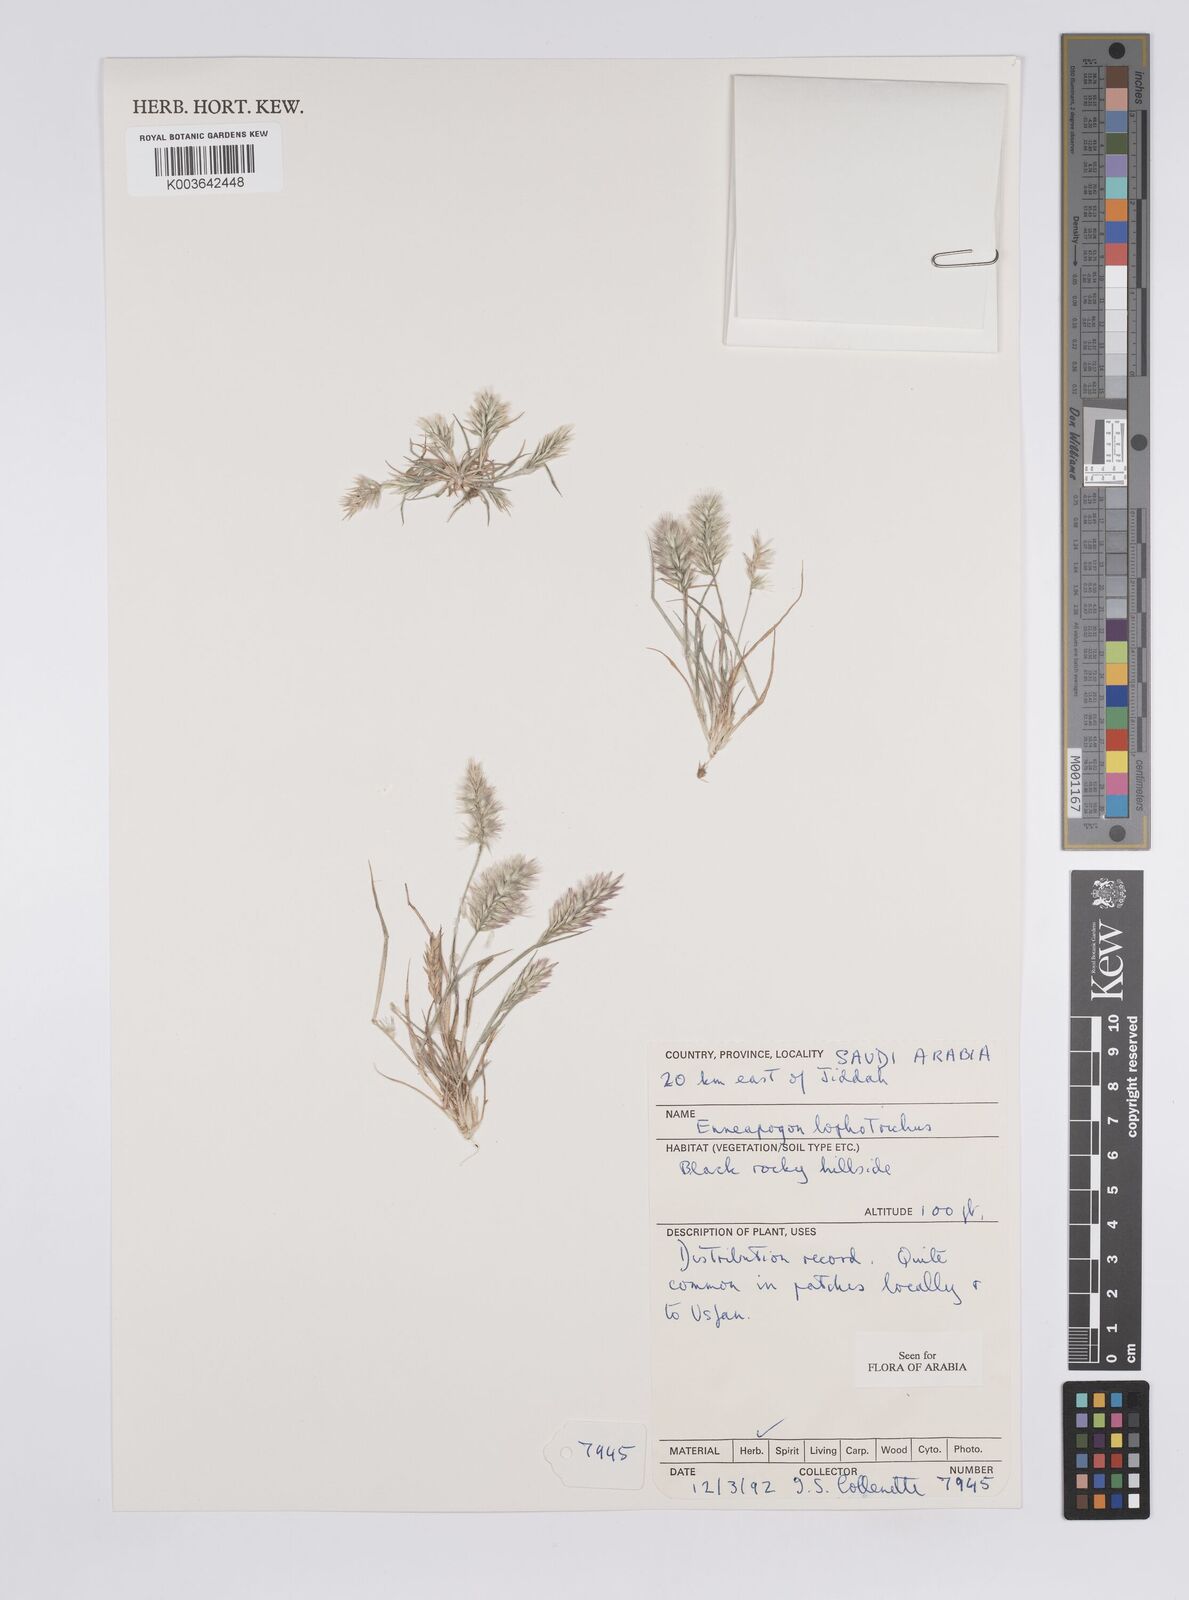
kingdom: Plantae
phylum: Tracheophyta
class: Liliopsida
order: Poales
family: Poaceae
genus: Enneapogon
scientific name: Enneapogon lophotrichus
